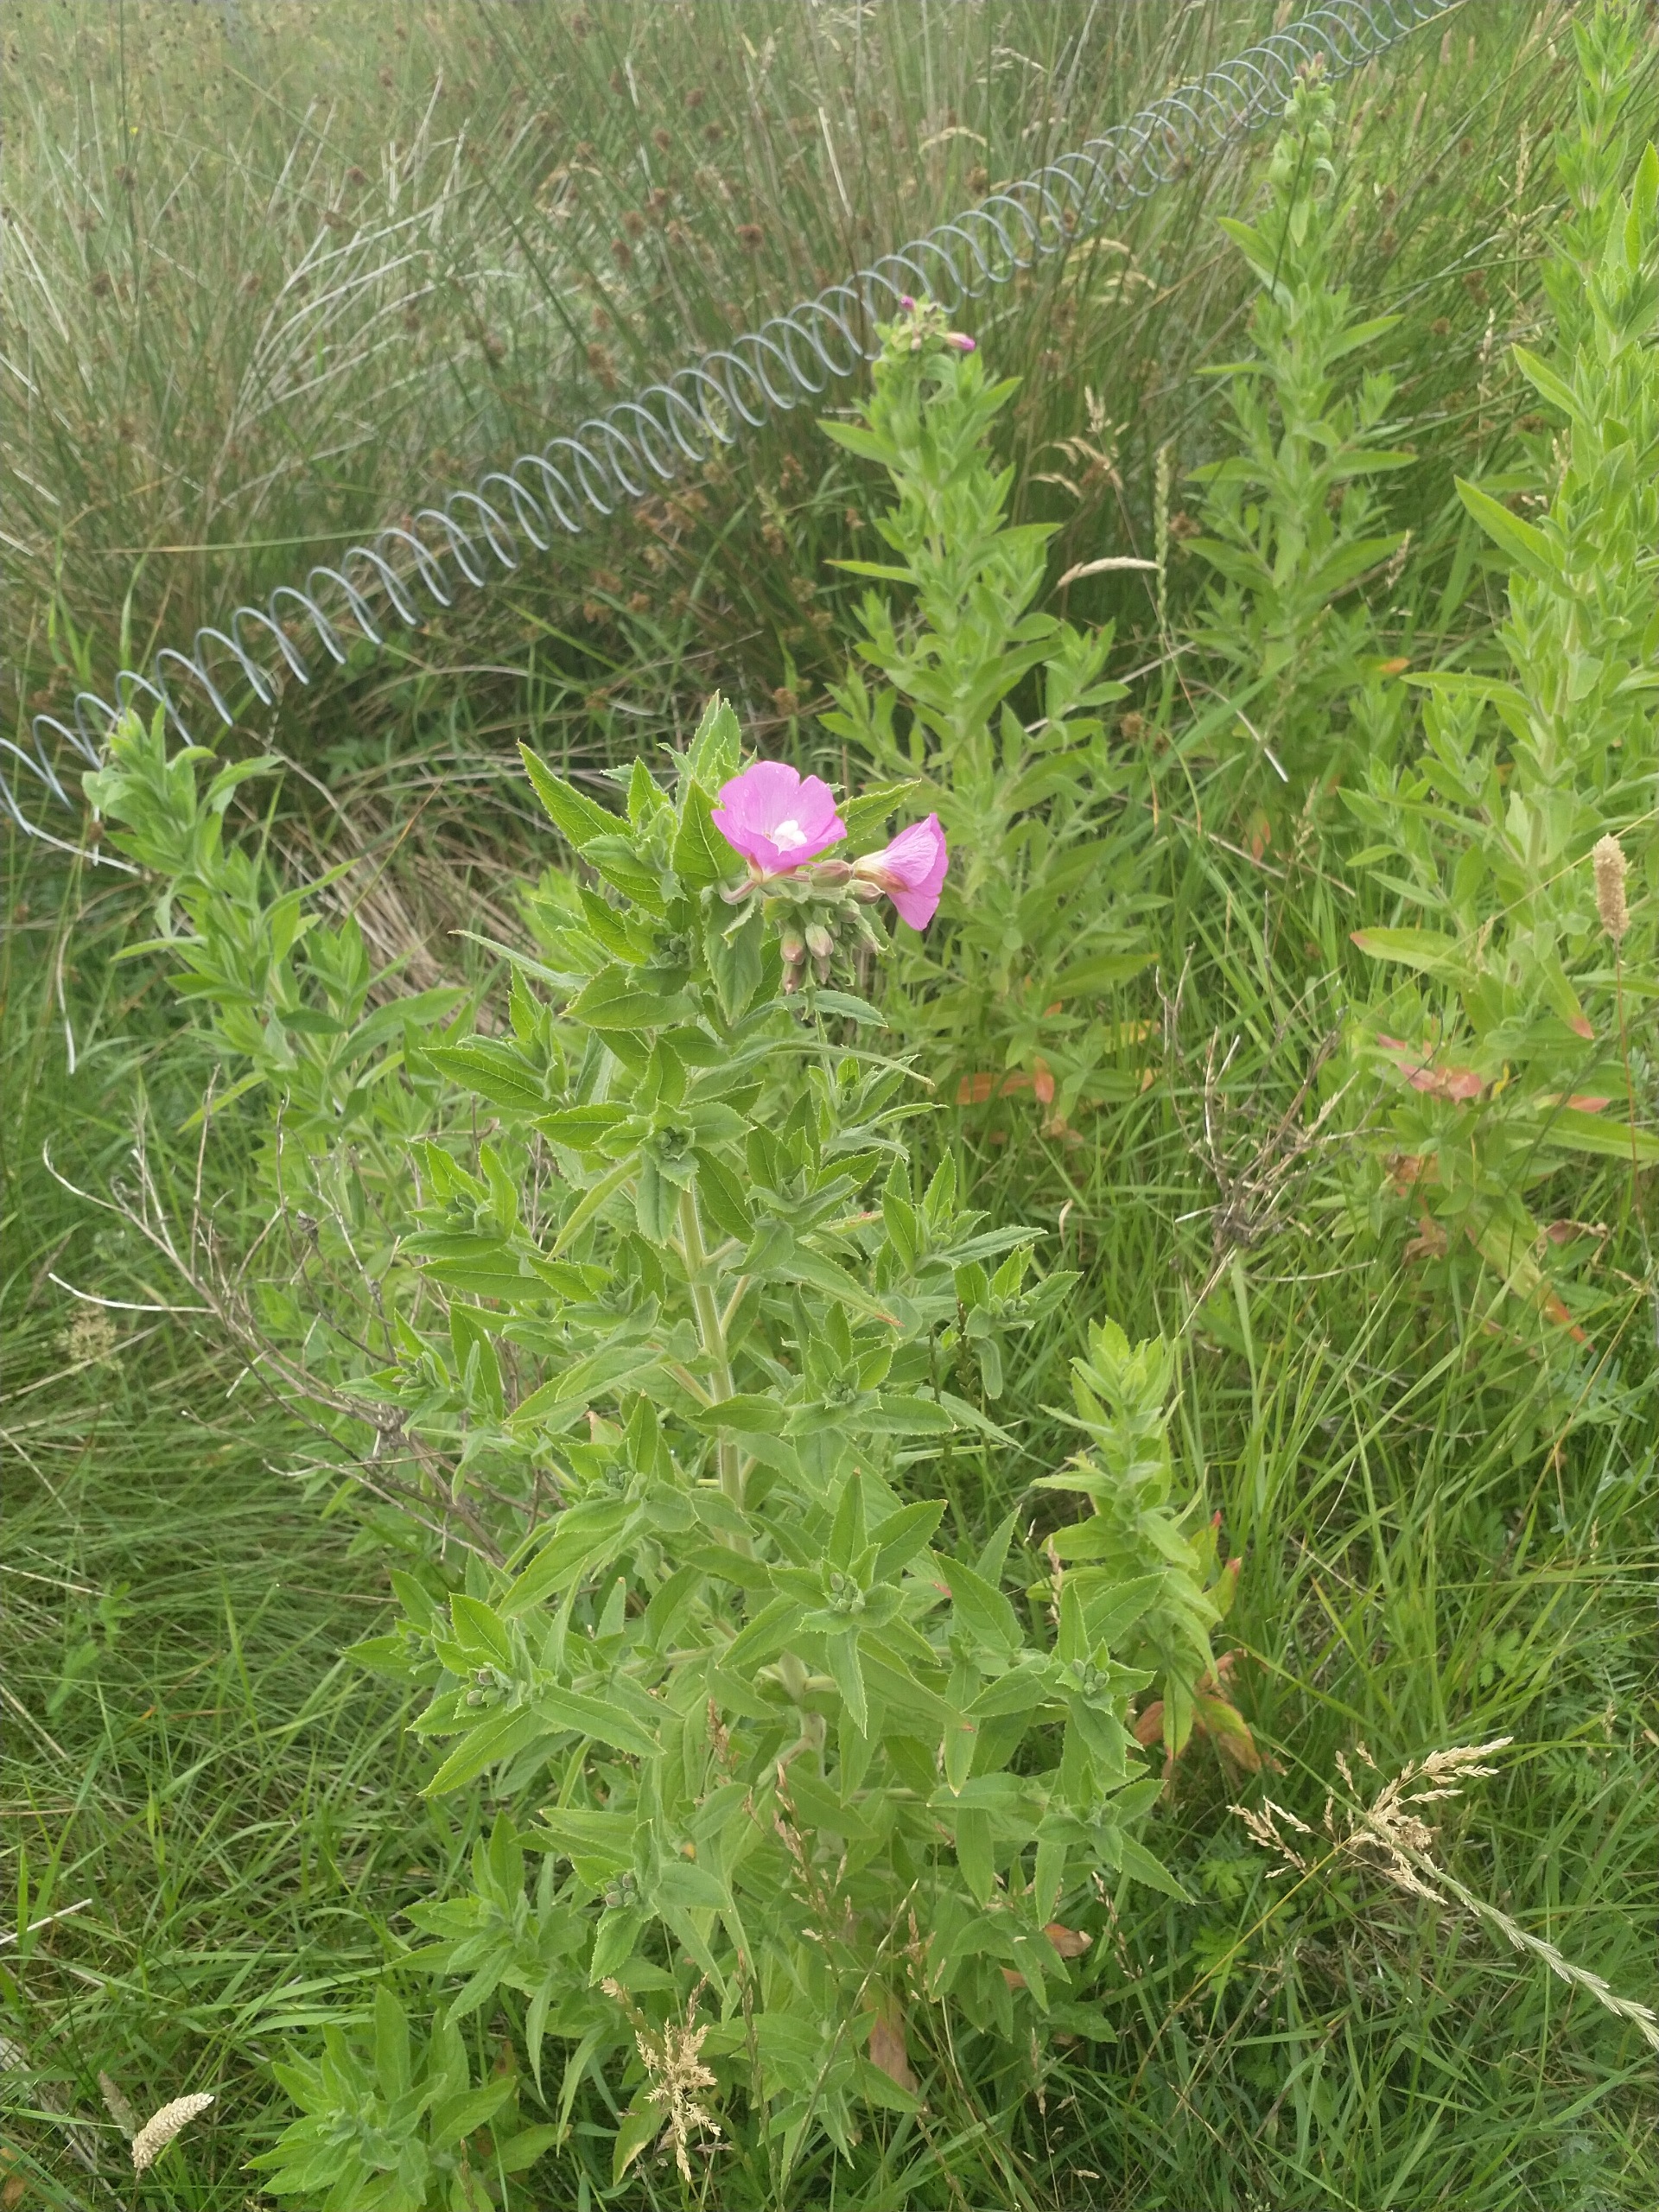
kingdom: Plantae
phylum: Tracheophyta
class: Magnoliopsida
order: Myrtales
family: Onagraceae
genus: Epilobium
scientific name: Epilobium hirsutum
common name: Lådden dueurt
